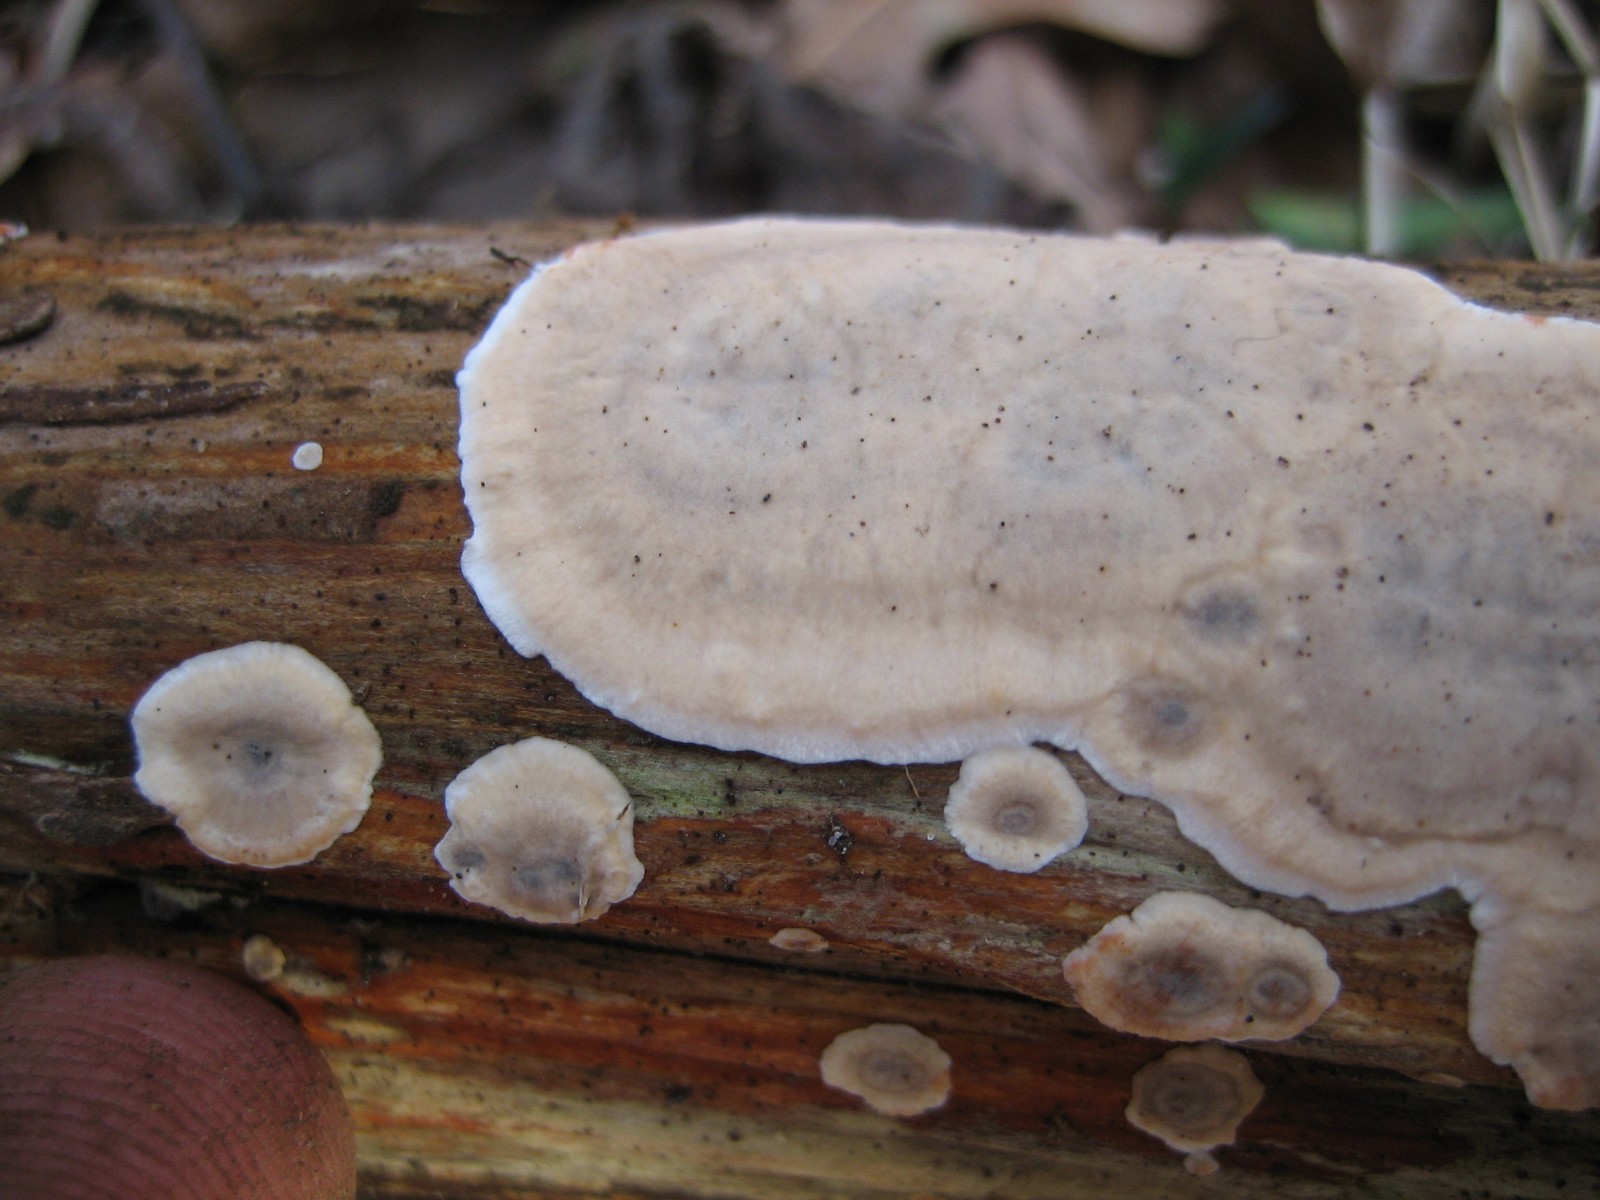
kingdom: Fungi
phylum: Basidiomycota
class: Agaricomycetes
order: Corticiales
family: Corticiaceae
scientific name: Corticiaceae
